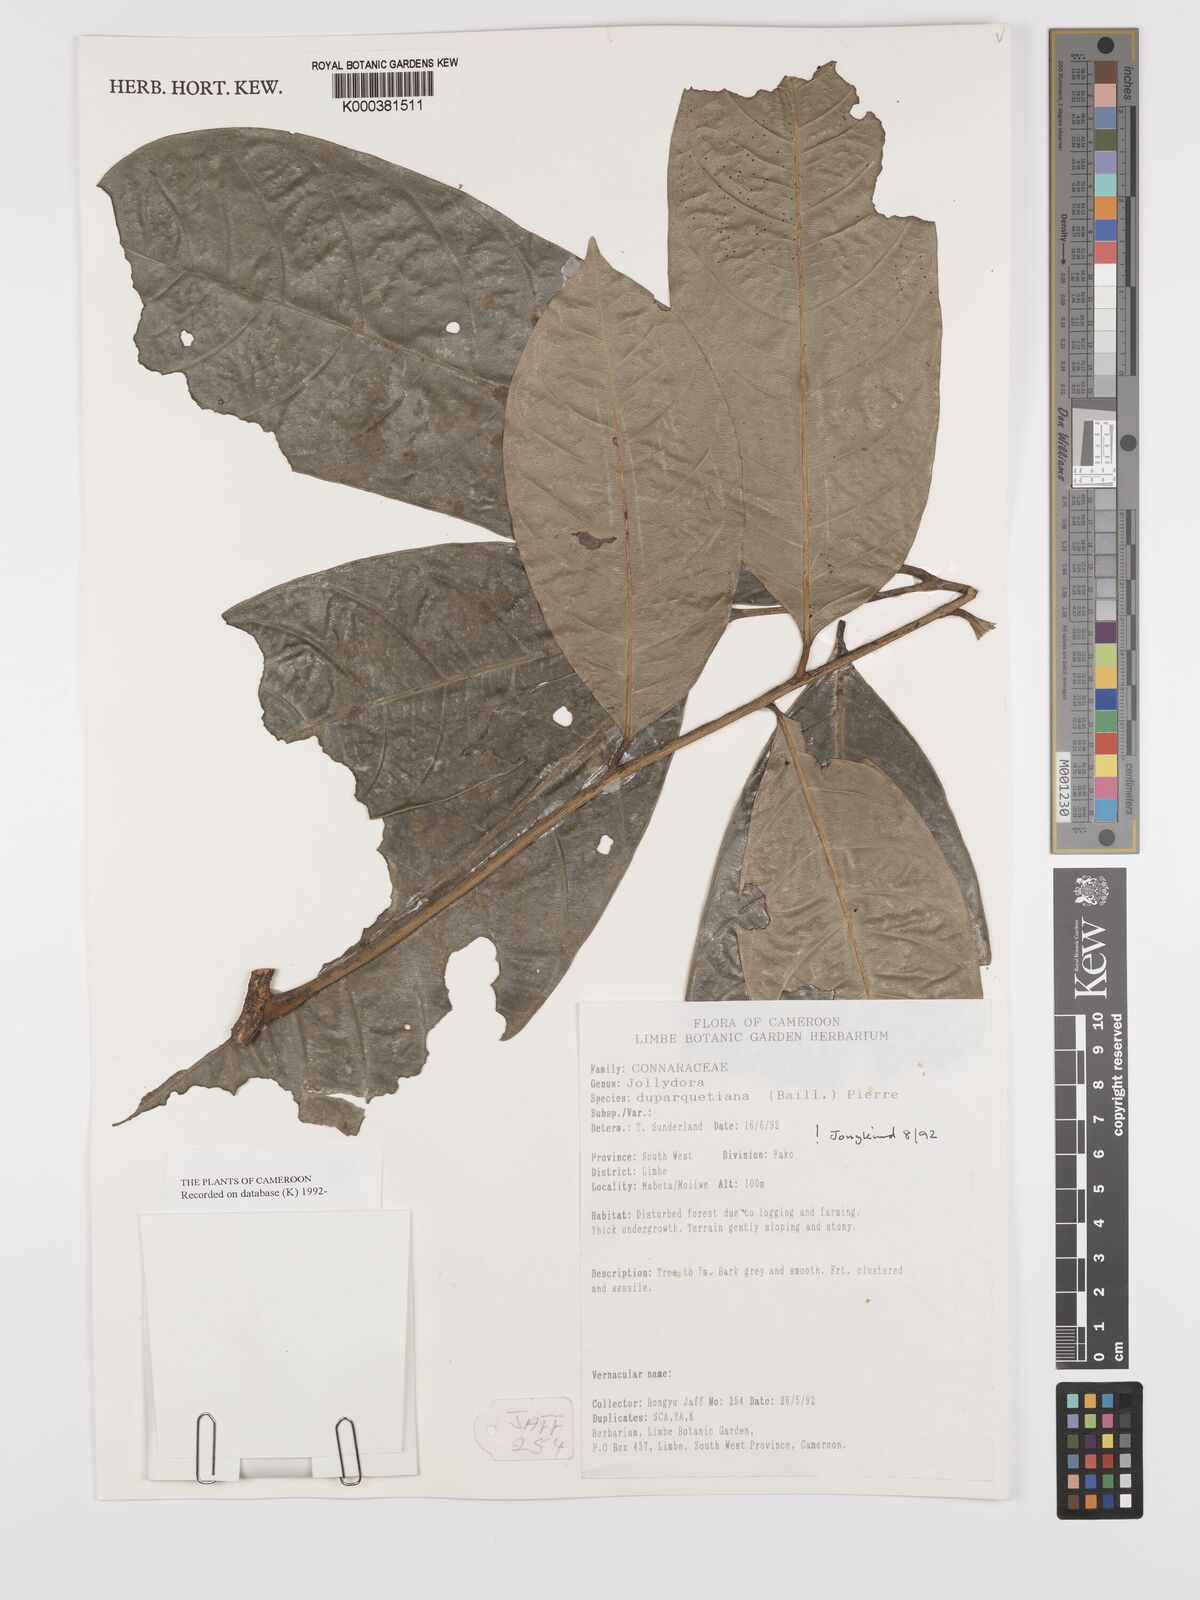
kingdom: Plantae
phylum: Tracheophyta
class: Magnoliopsida
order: Oxalidales
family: Connaraceae
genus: Jollydora
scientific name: Jollydora duparquetiana
